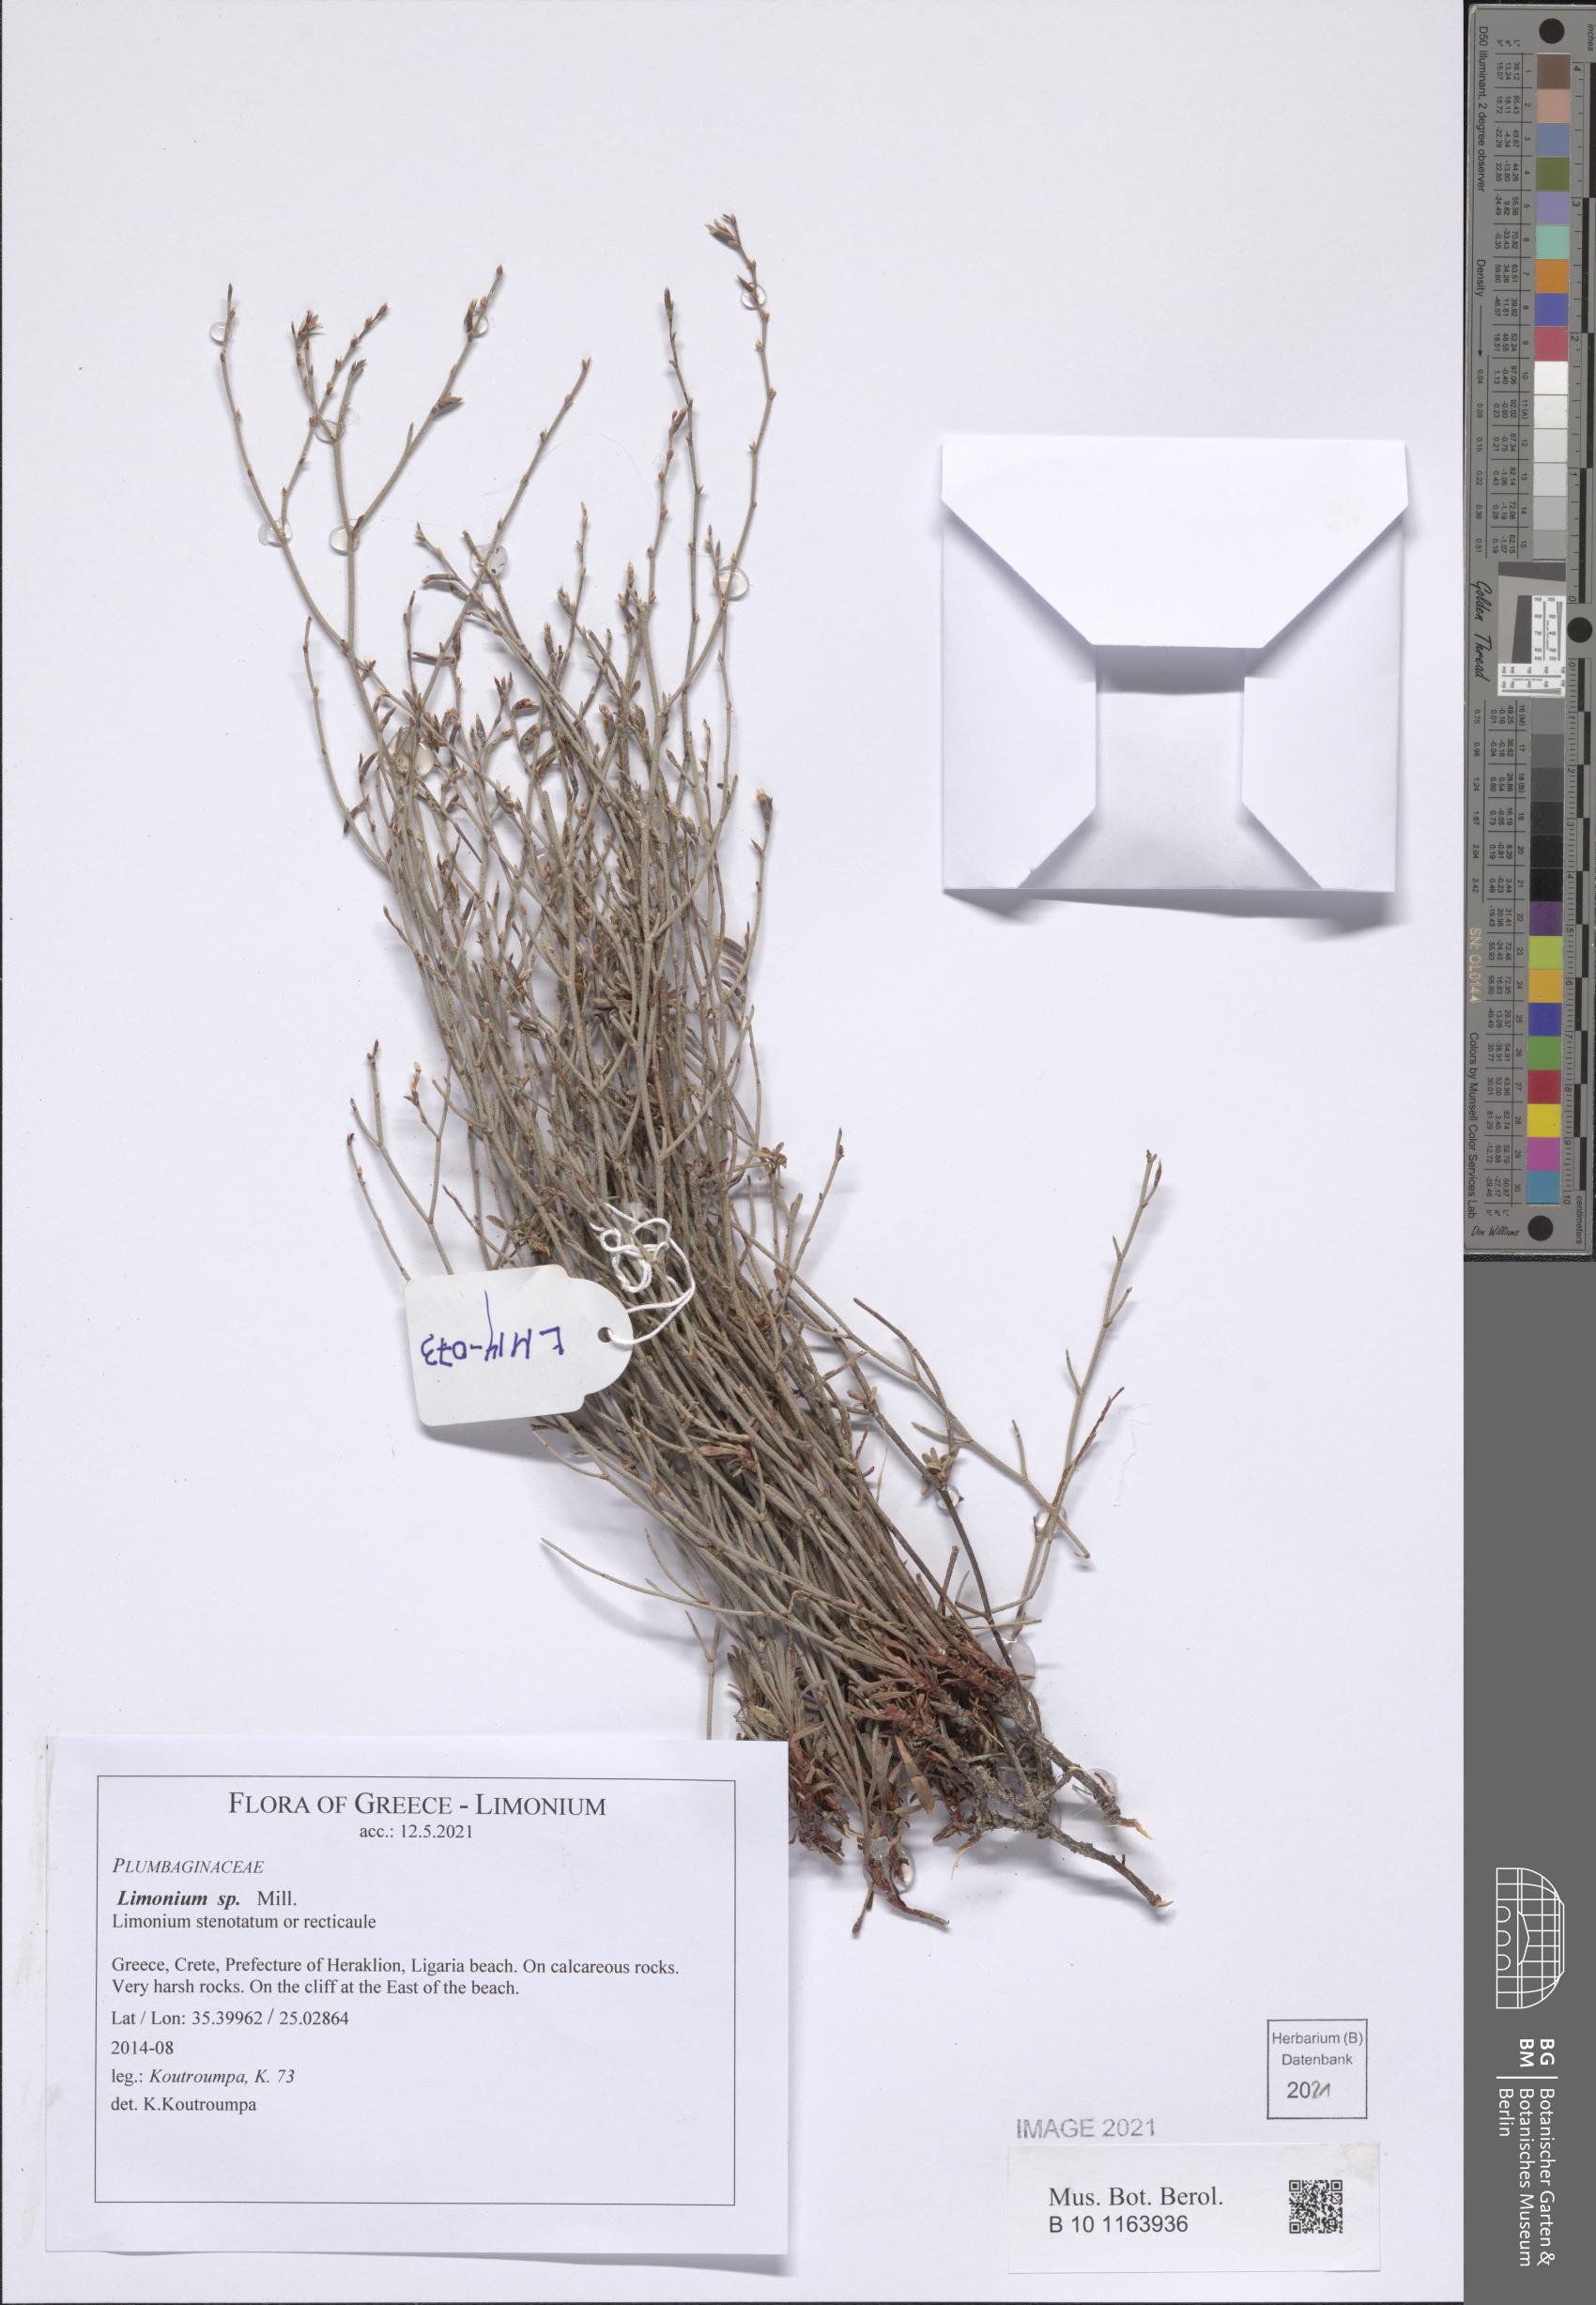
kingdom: Plantae
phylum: Tracheophyta
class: Magnoliopsida
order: Caryophyllales
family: Plumbaginaceae
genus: Limonium
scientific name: Limonium
